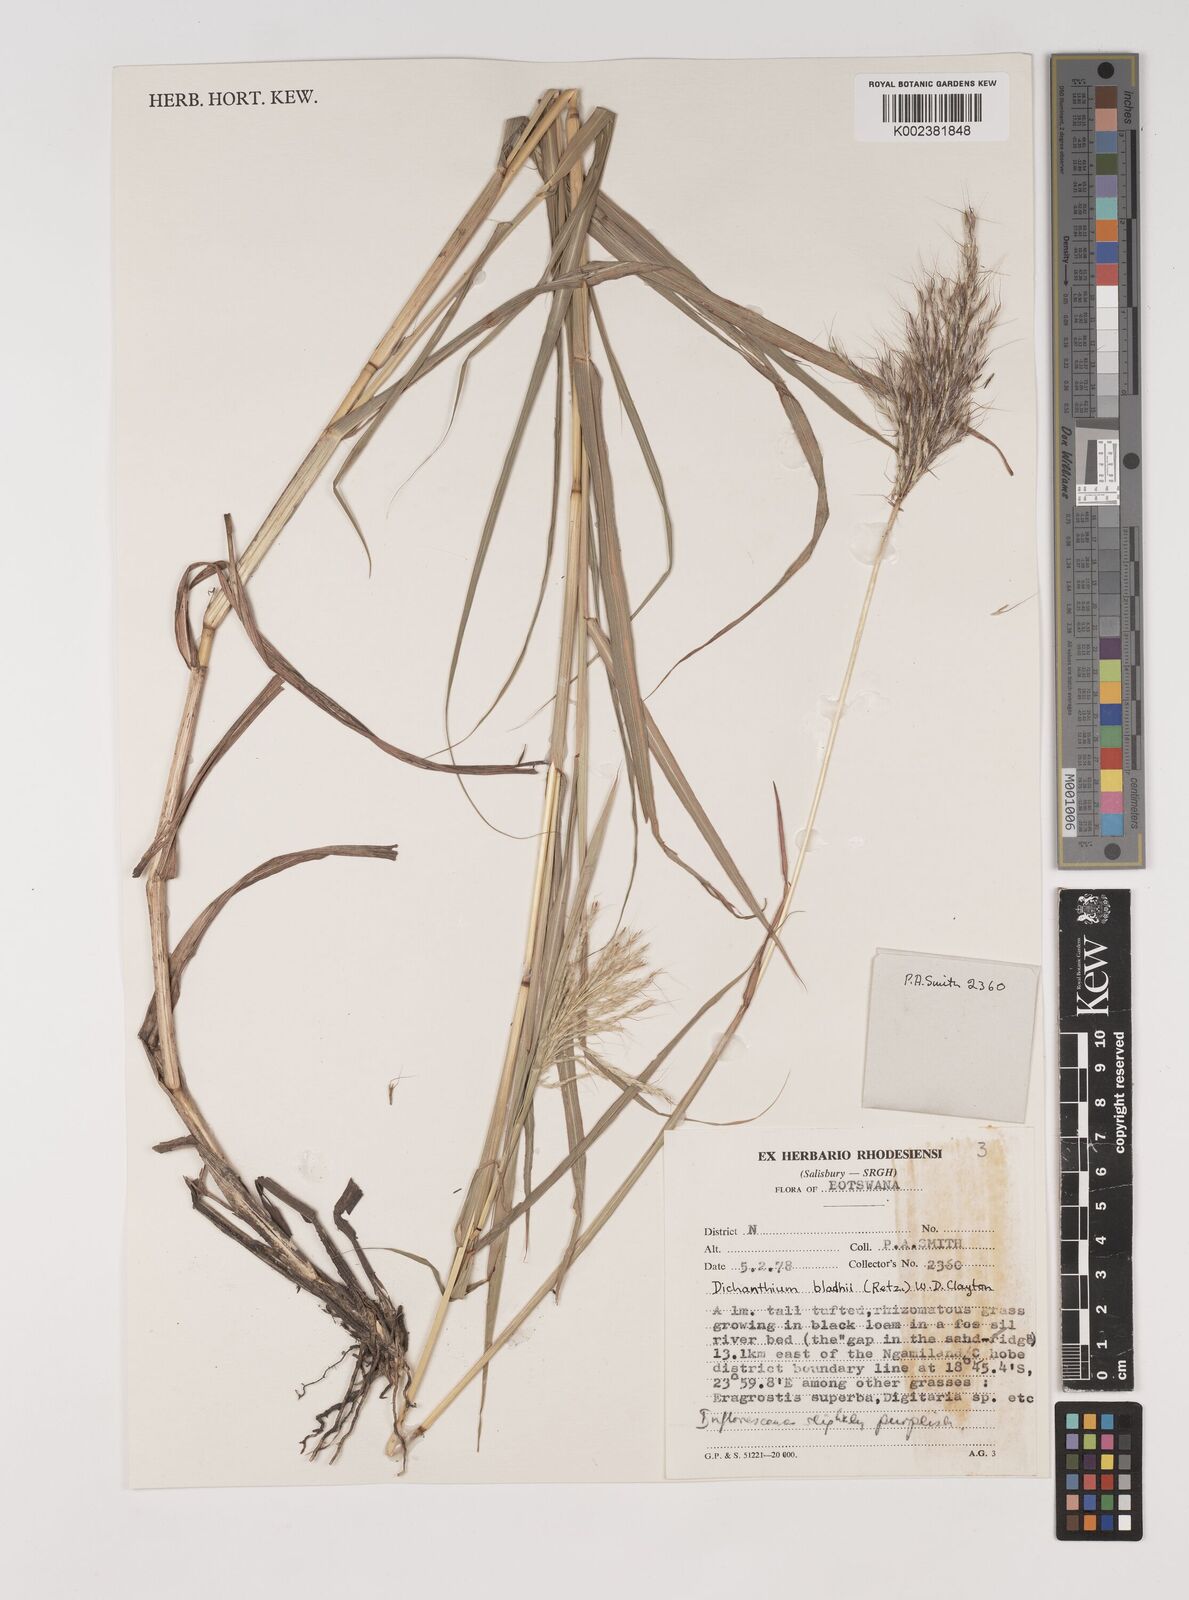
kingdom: Plantae
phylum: Tracheophyta
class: Liliopsida
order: Poales
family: Poaceae
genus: Bothriochloa
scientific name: Bothriochloa bladhii
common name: Caucasian bluestem
